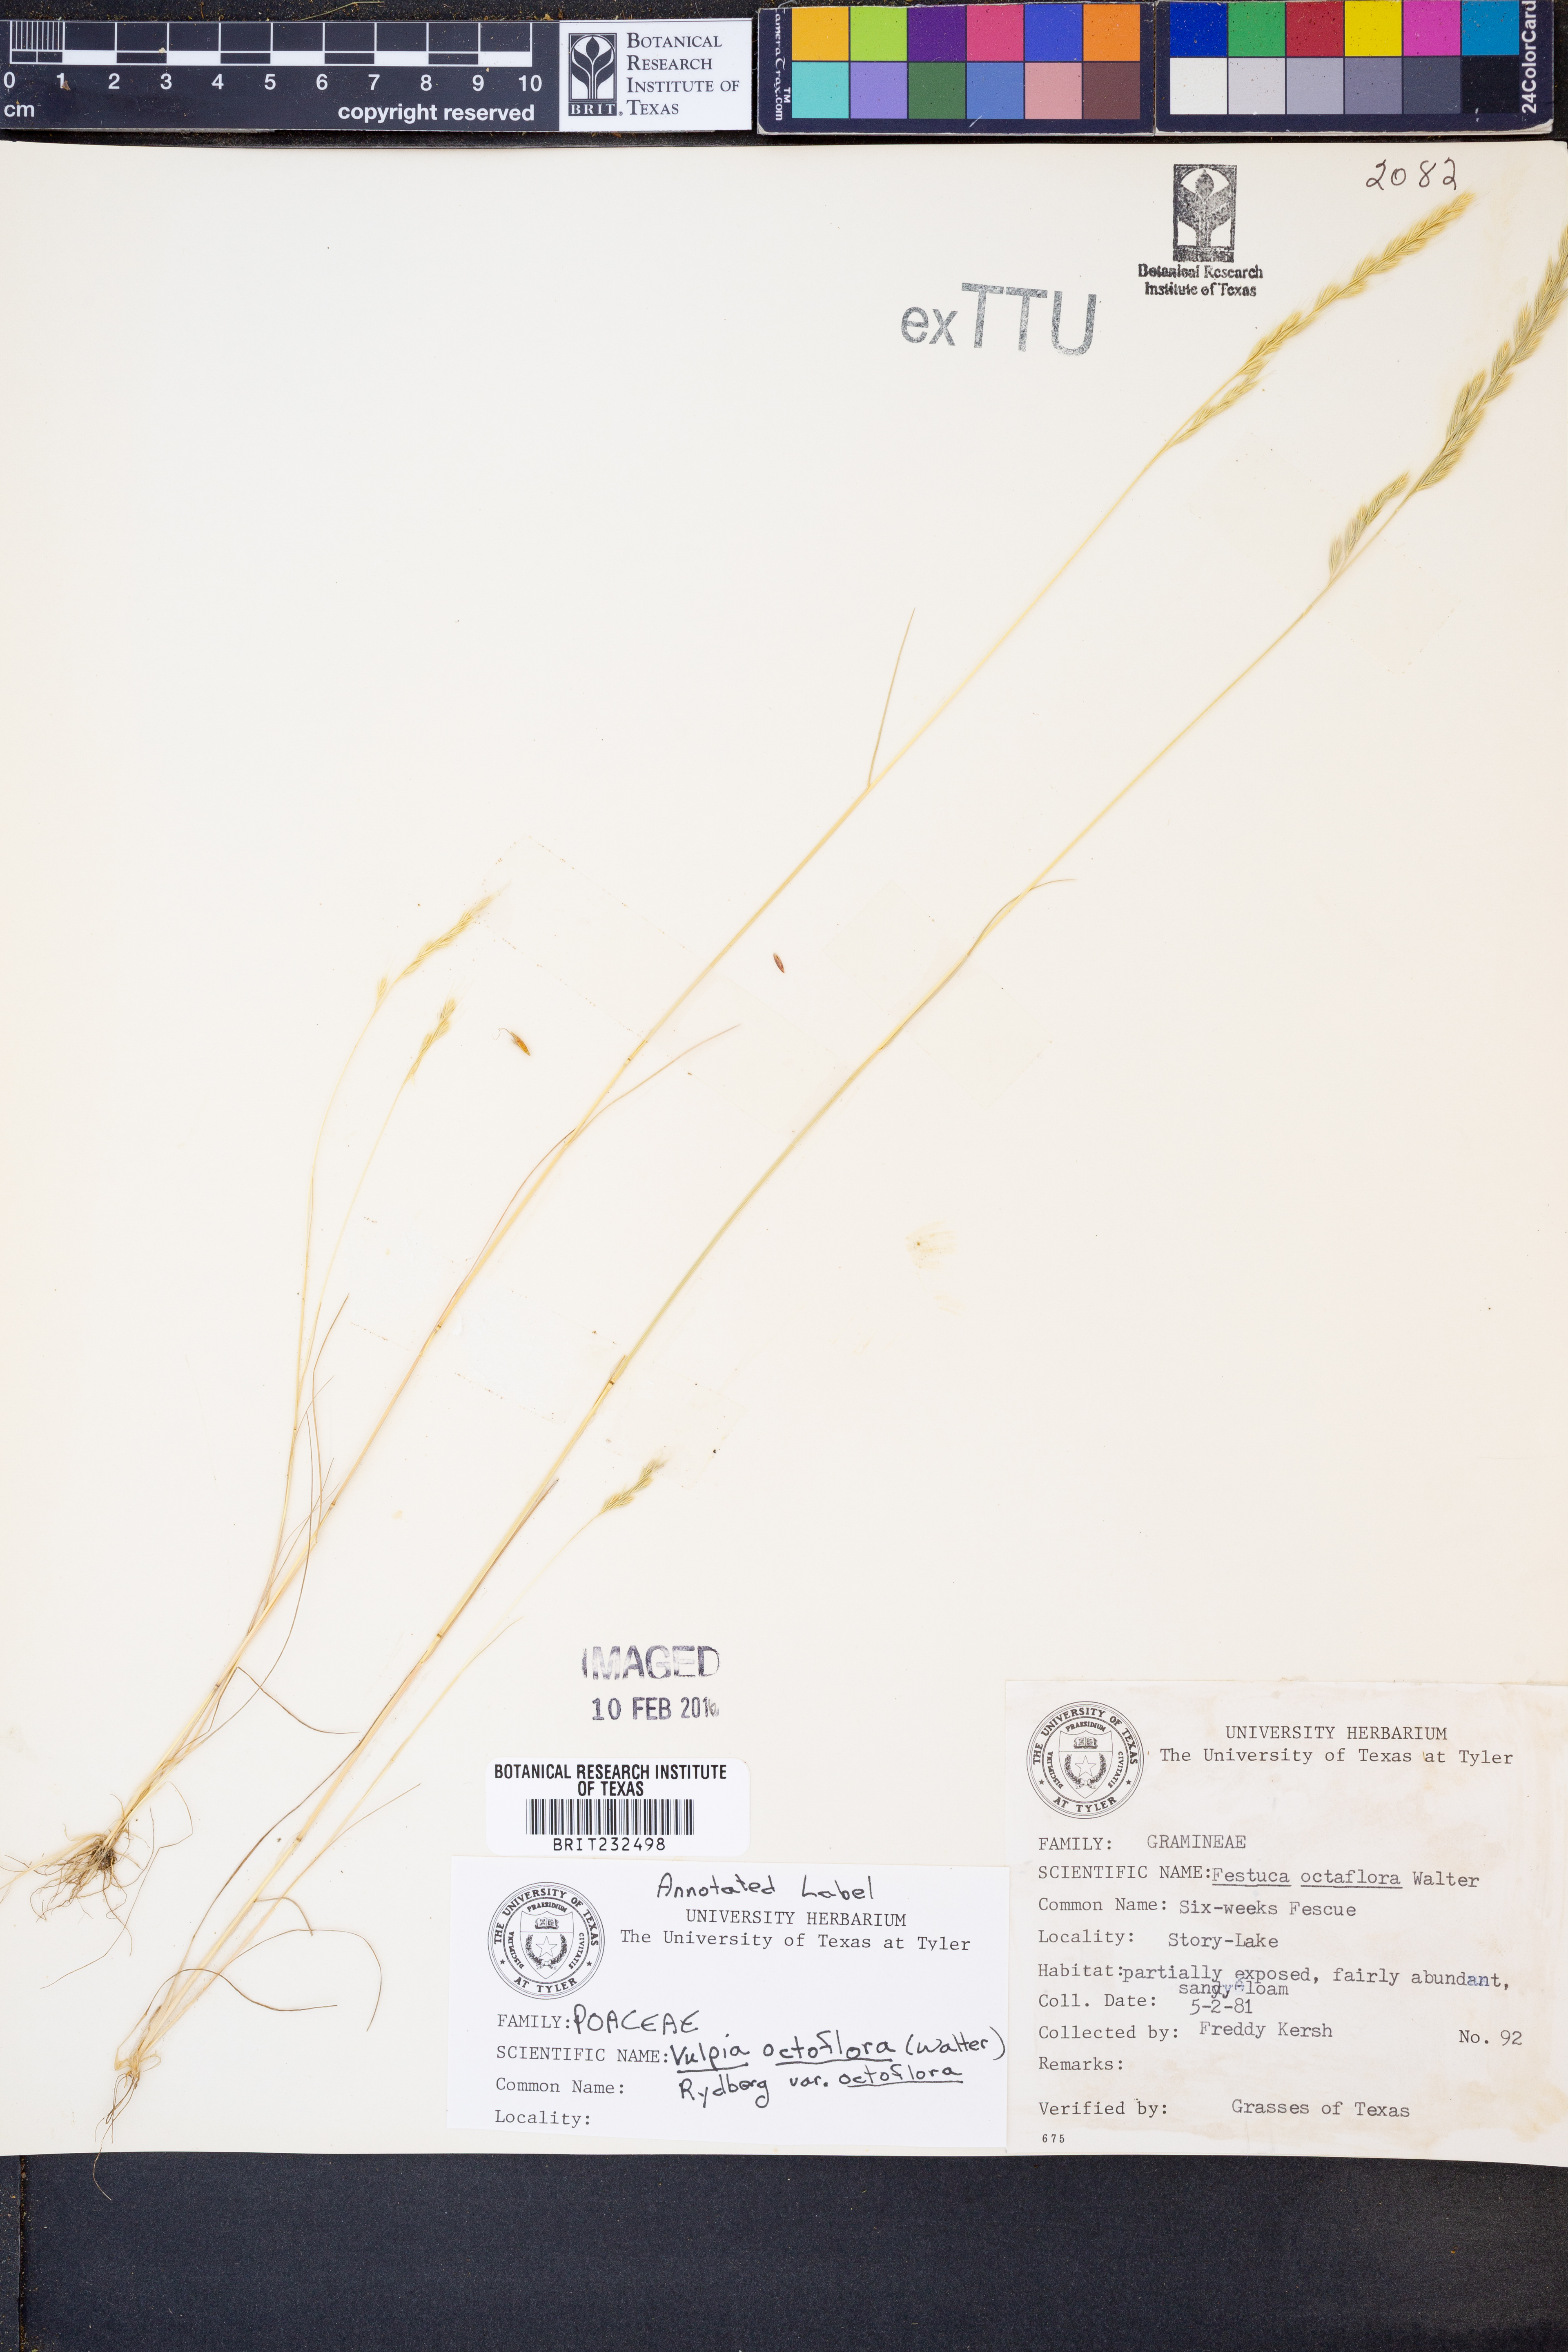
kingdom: Plantae
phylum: Tracheophyta
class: Liliopsida
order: Poales
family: Poaceae
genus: Festuca
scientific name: Festuca octoflora
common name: Sixweeks grass
